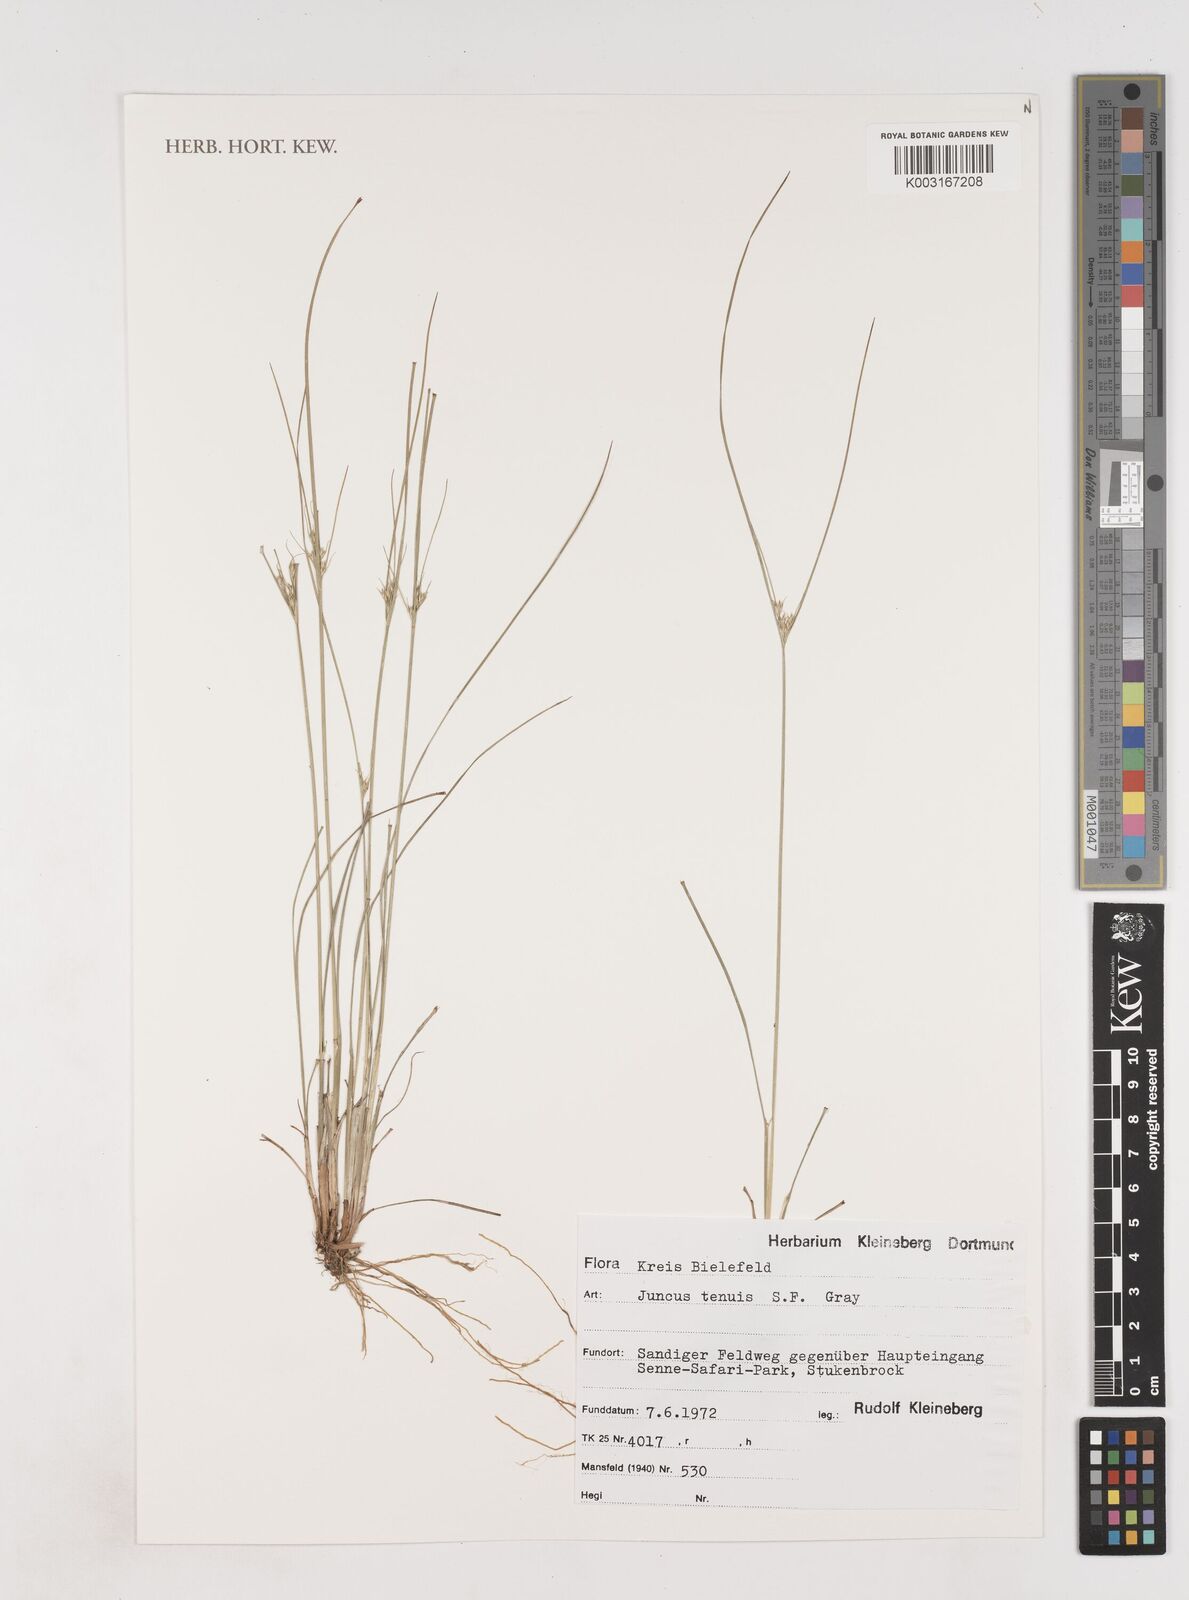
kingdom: Plantae
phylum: Tracheophyta
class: Liliopsida
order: Poales
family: Juncaceae
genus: Juncus
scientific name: Juncus tenuis
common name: Slender rush
